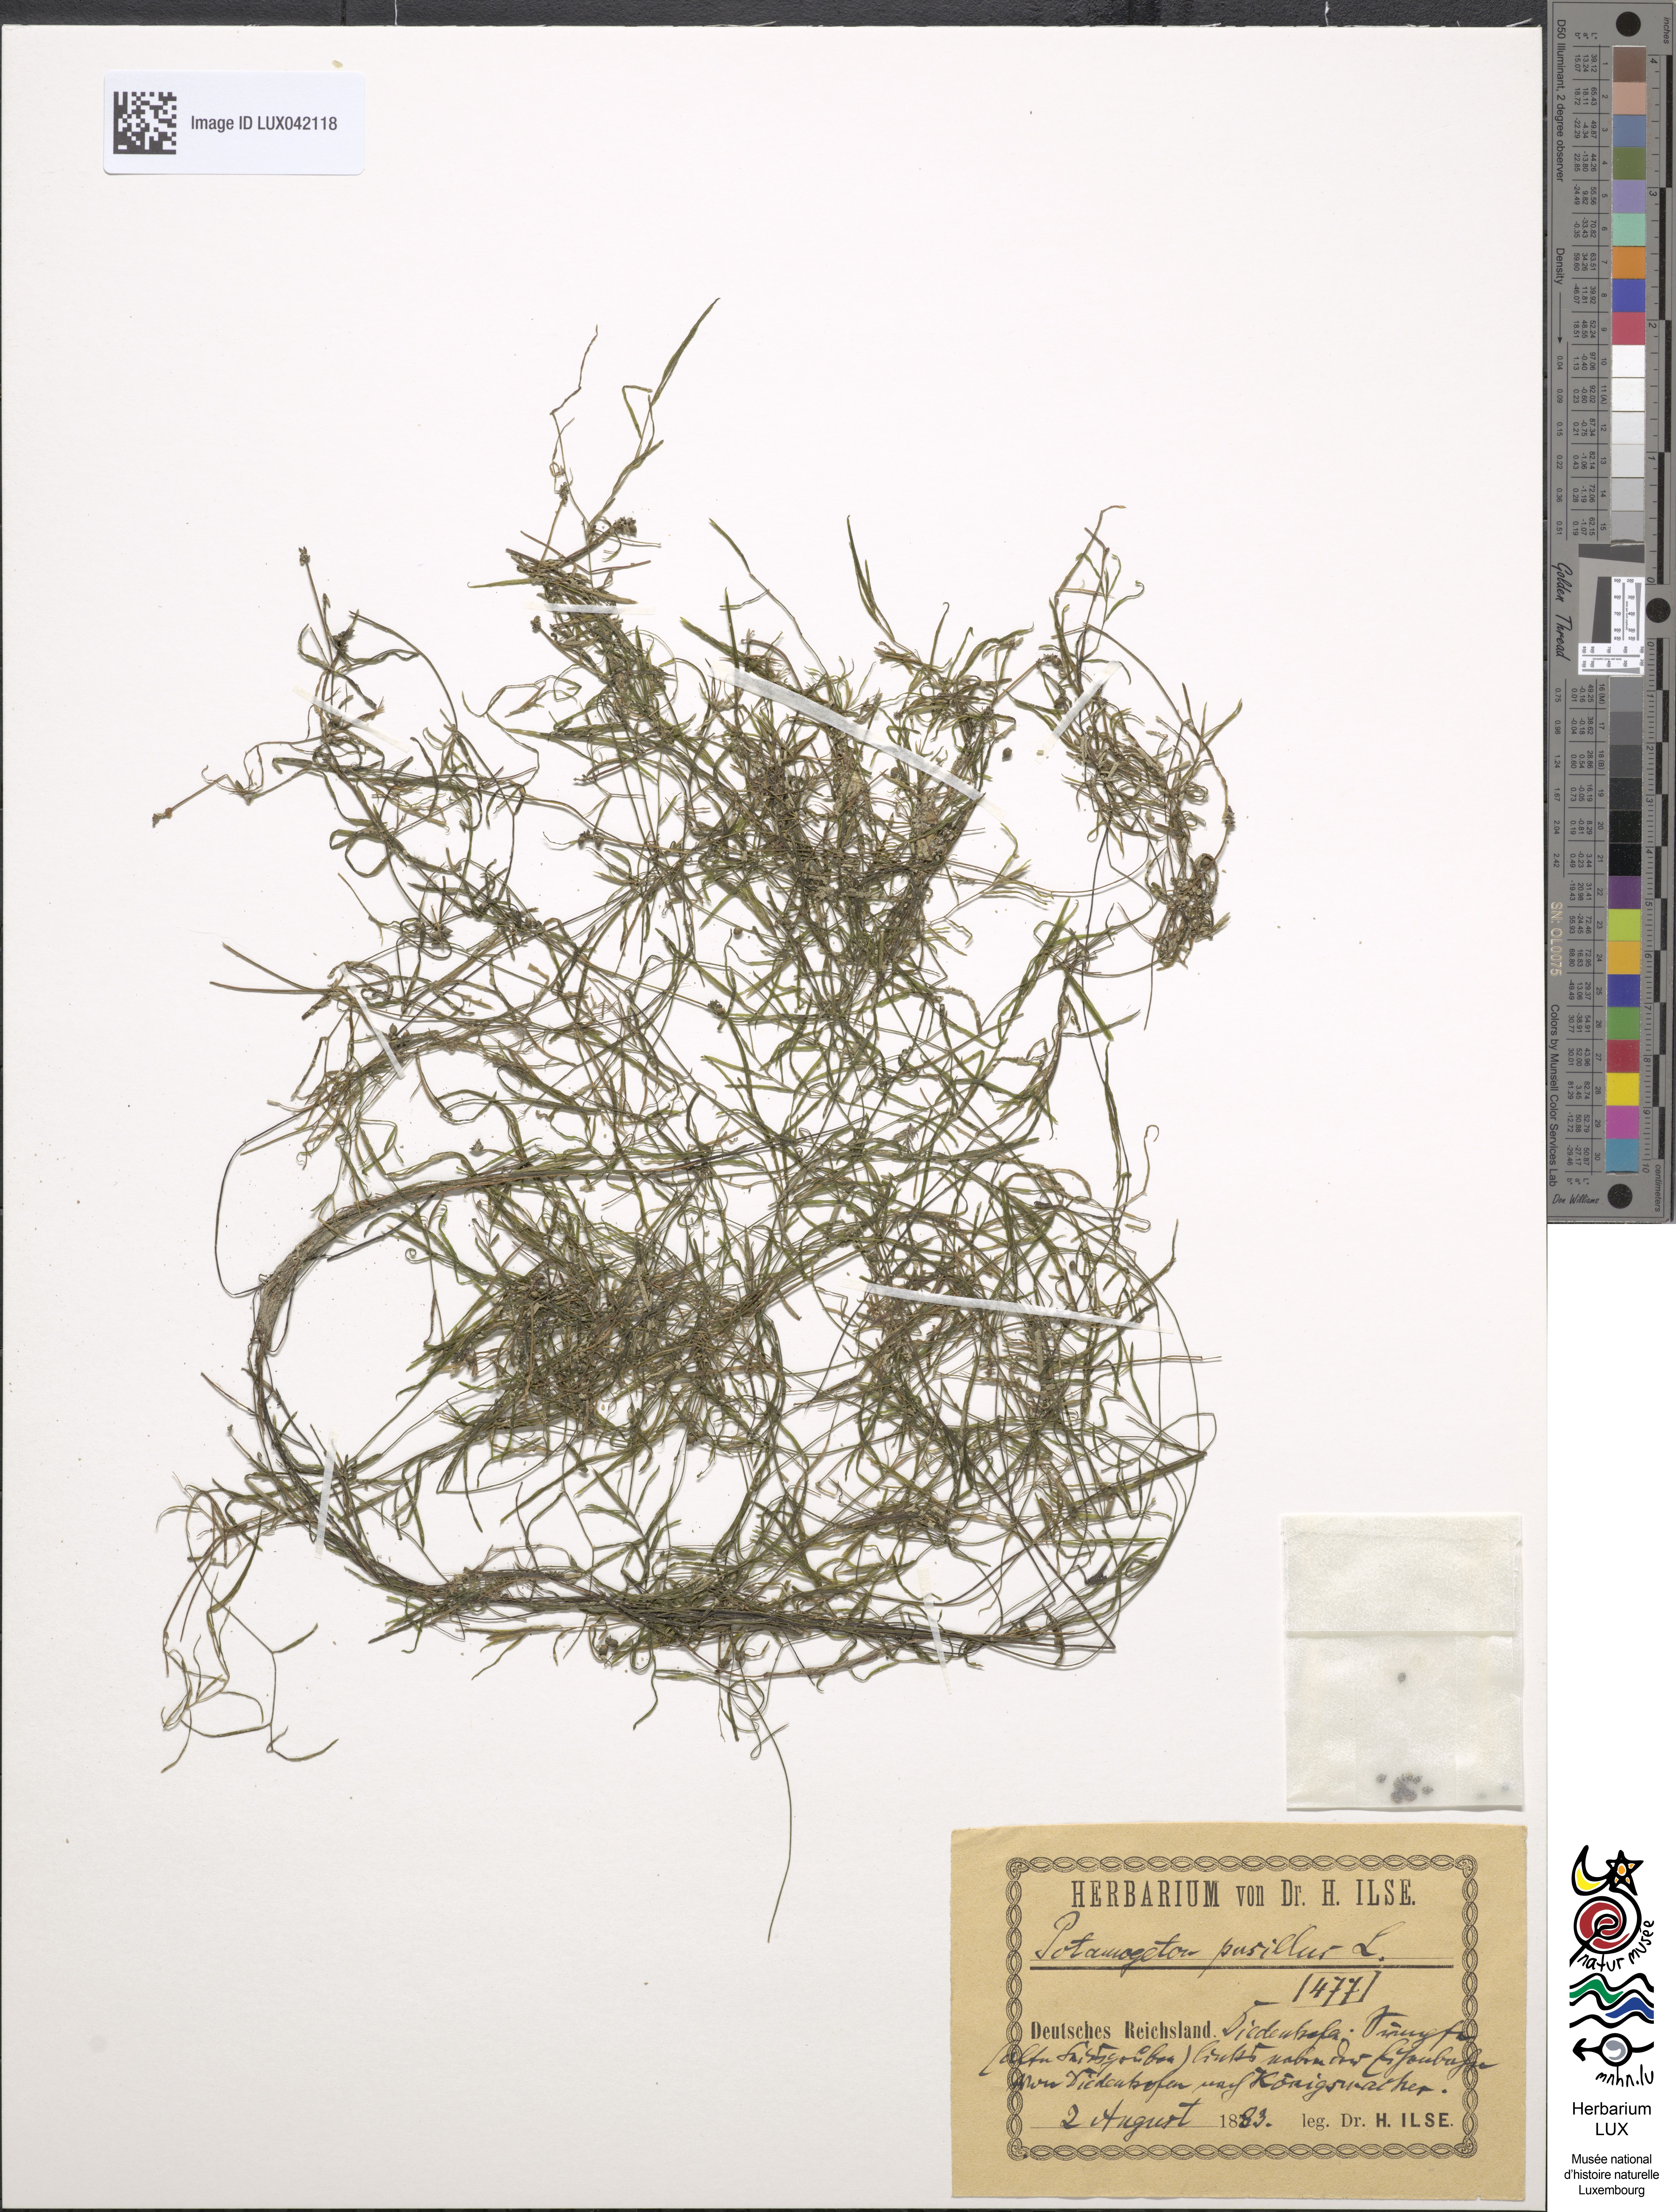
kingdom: Plantae
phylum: Tracheophyta
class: Liliopsida
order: Alismatales
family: Potamogetonaceae
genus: Potamogeton
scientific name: Potamogeton pusillus
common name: Lesser pondweed
